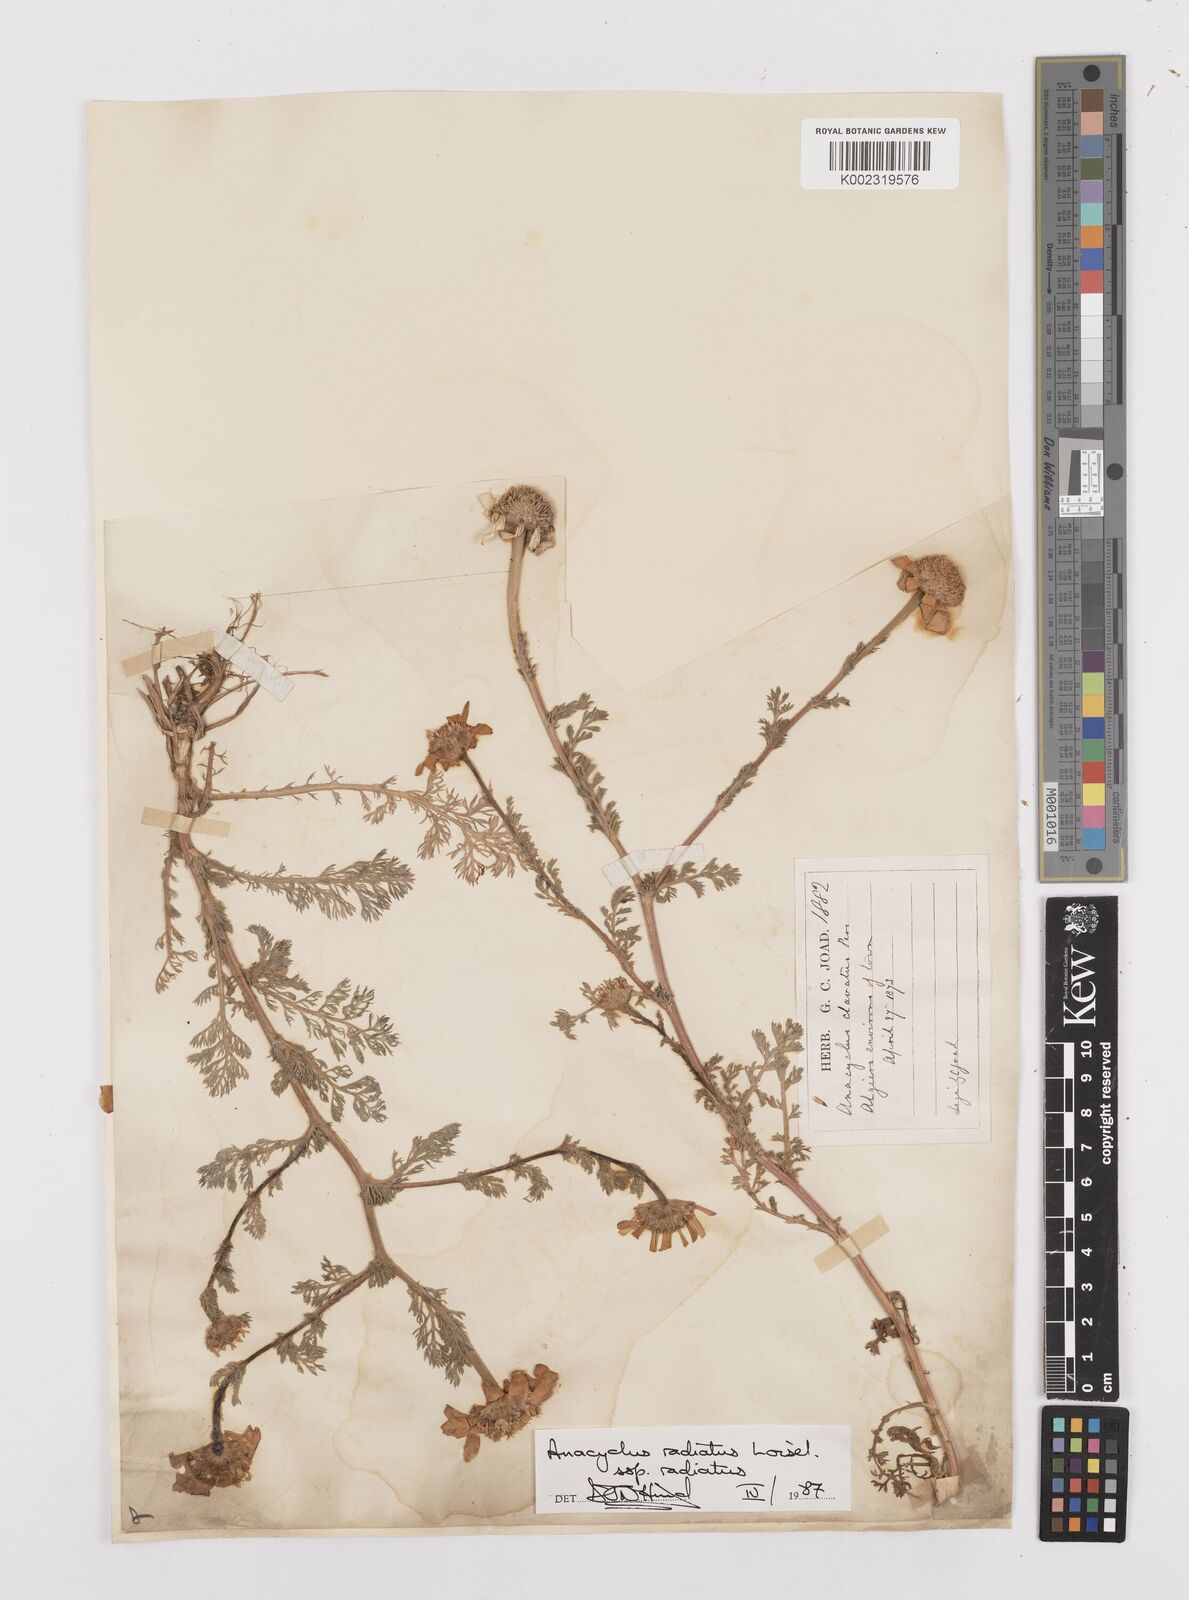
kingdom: Plantae
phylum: Tracheophyta
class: Magnoliopsida
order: Asterales
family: Asteraceae
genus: Anacyclus
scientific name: Anacyclus radiatus
